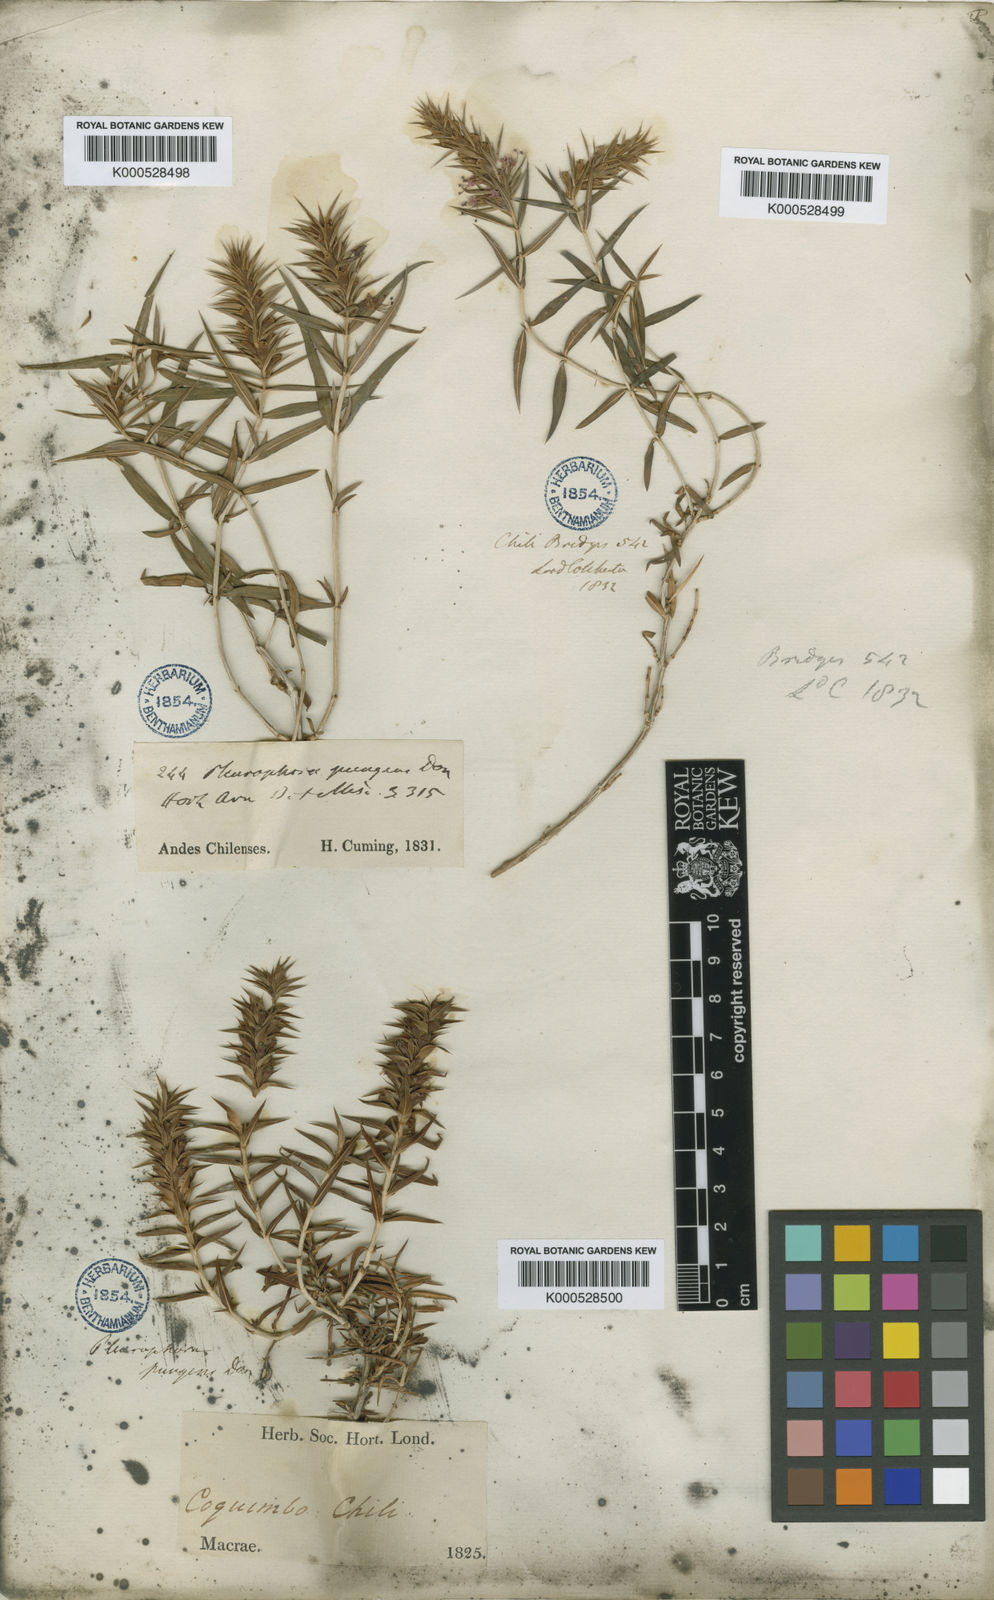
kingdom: Plantae
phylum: Tracheophyta
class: Magnoliopsida
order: Myrtales
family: Lythraceae
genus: Pleurophora
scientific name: Pleurophora pungens
